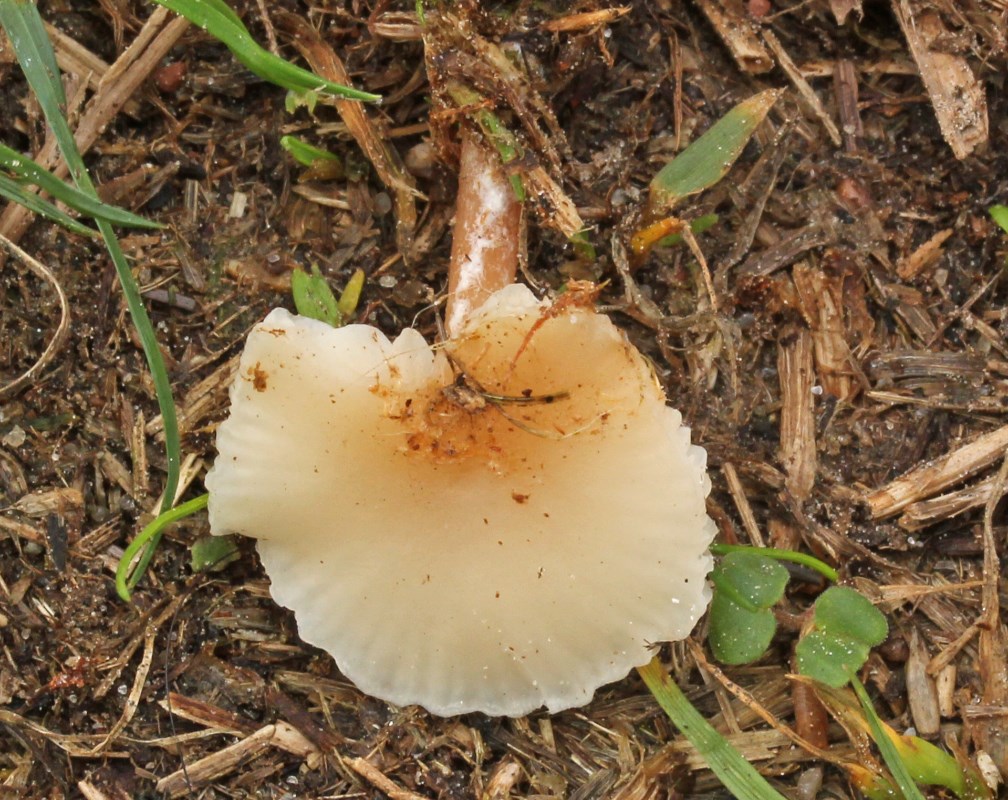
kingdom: Fungi
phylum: Basidiomycota
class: Agaricomycetes
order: Agaricales
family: Tricholomataceae
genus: Clitocybe
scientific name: Clitocybe
